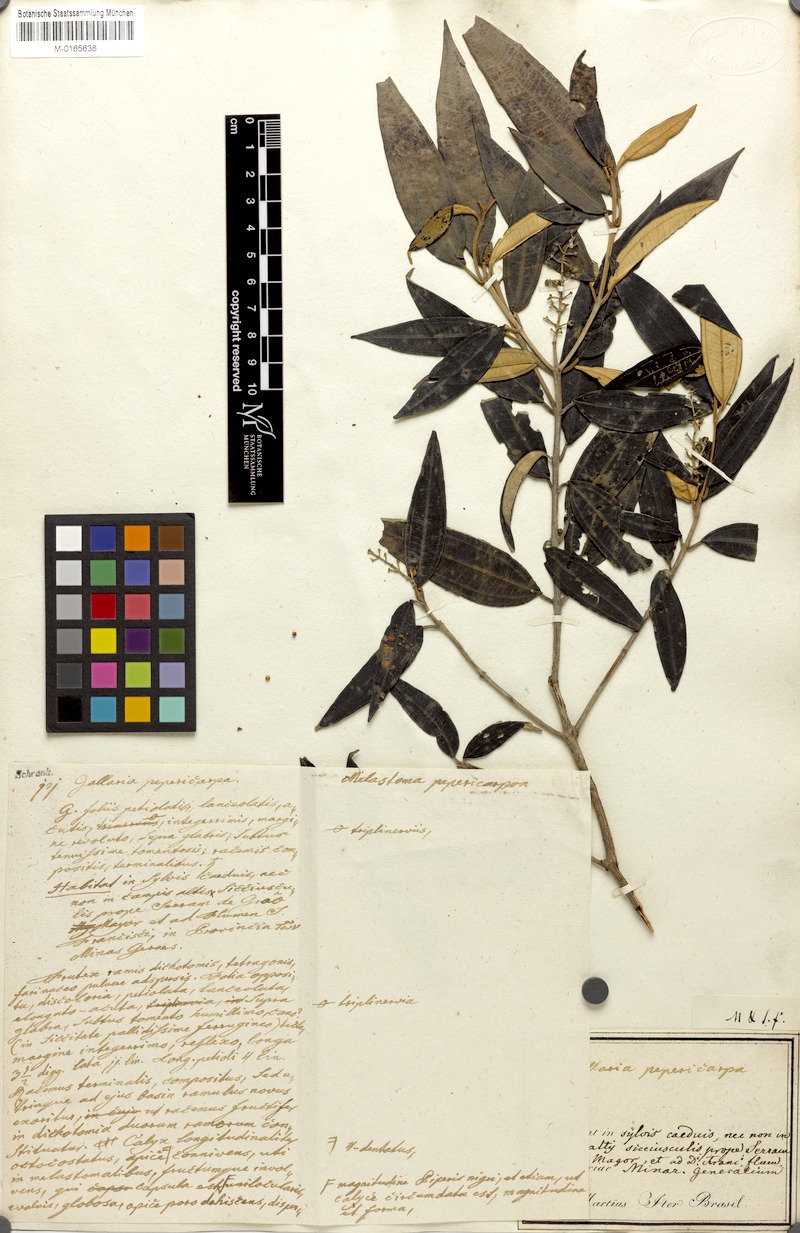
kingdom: Plantae
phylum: Tracheophyta
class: Magnoliopsida
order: Myrtales
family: Melastomataceae
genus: Miconia
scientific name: Miconia pepericarpa
